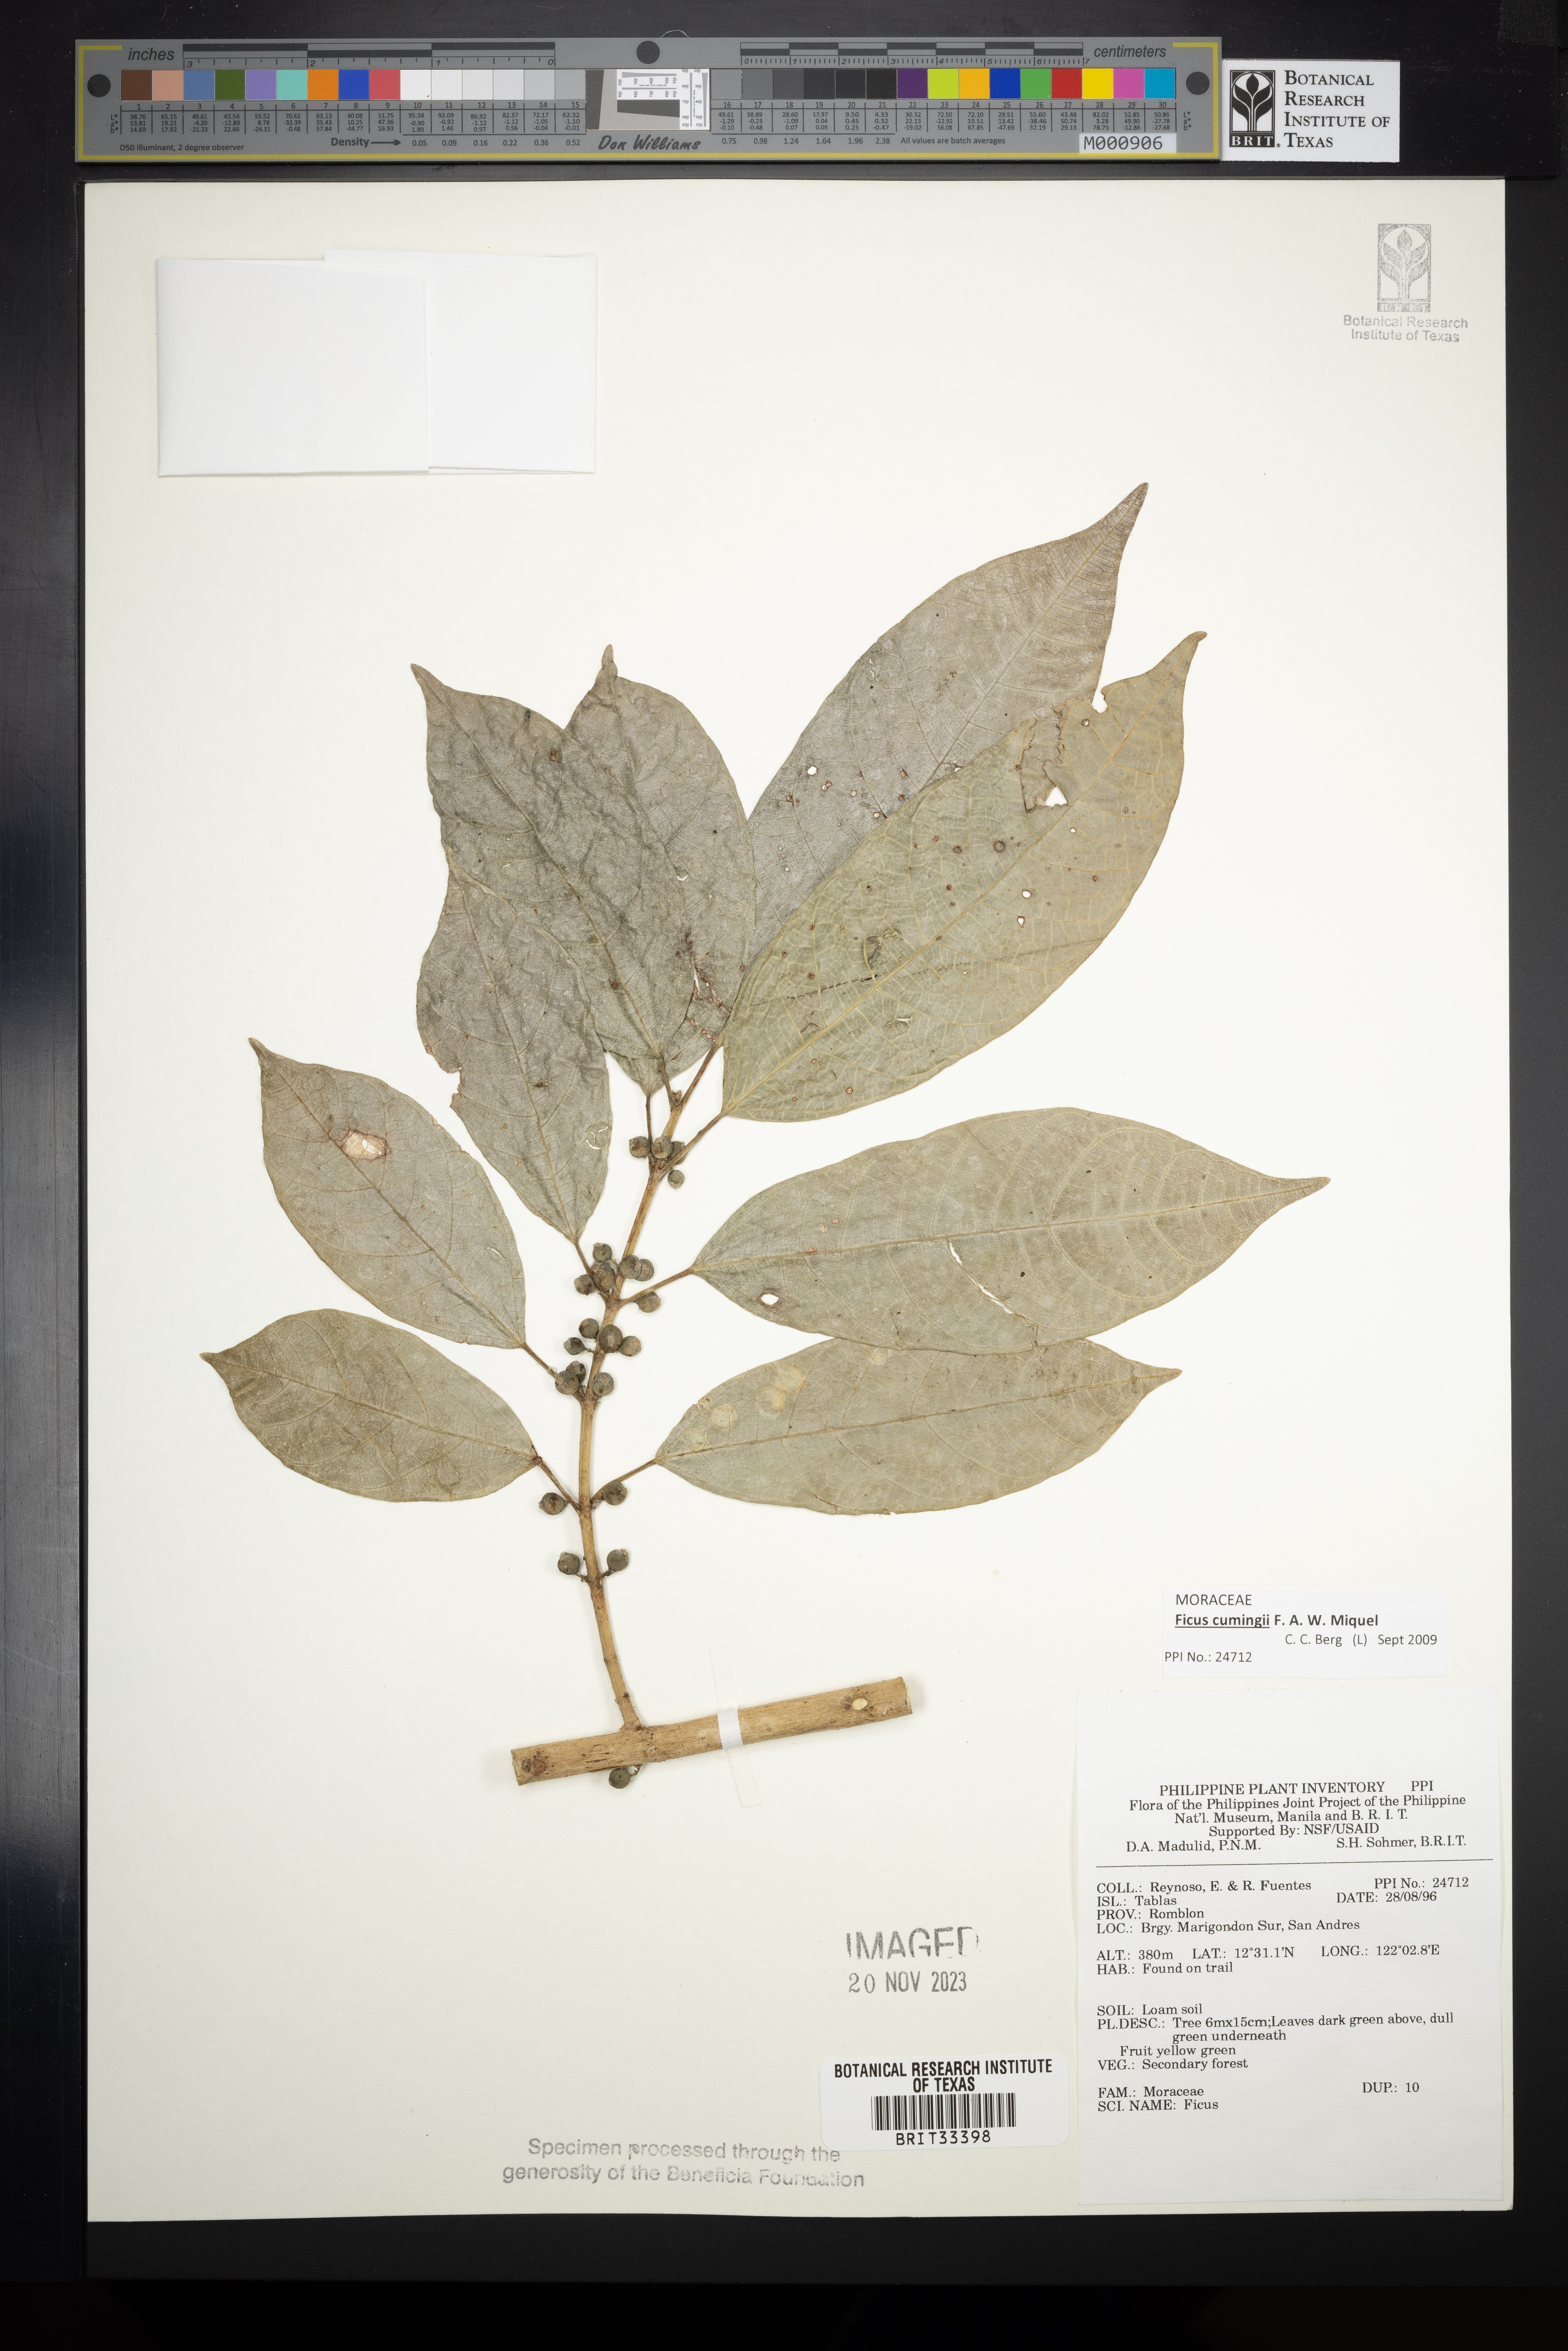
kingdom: Plantae
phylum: Tracheophyta
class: Magnoliopsida
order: Rosales
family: Moraceae
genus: Ficus
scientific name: Ficus
